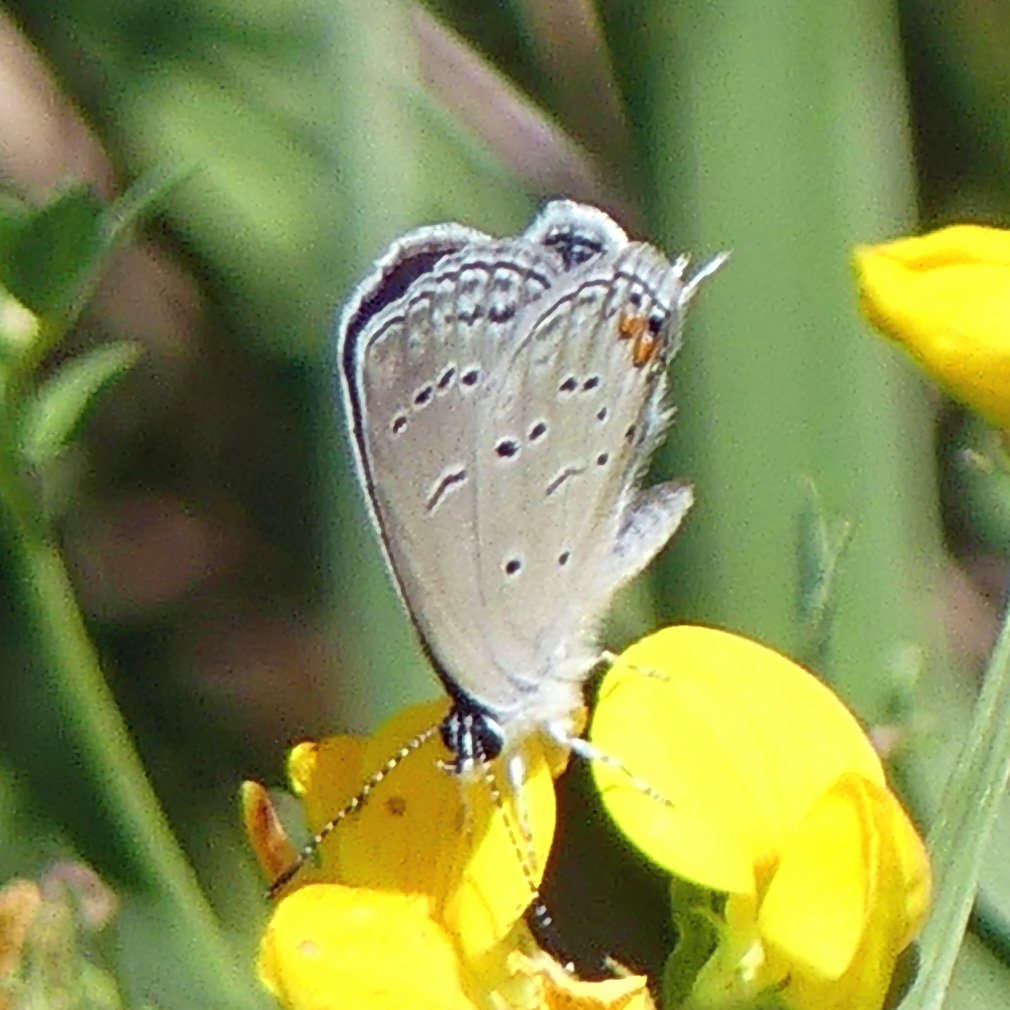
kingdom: Animalia
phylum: Arthropoda
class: Insecta
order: Lepidoptera
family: Lycaenidae
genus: Elkalyce
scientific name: Elkalyce comyntas
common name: Eastern Tailed-Blue
